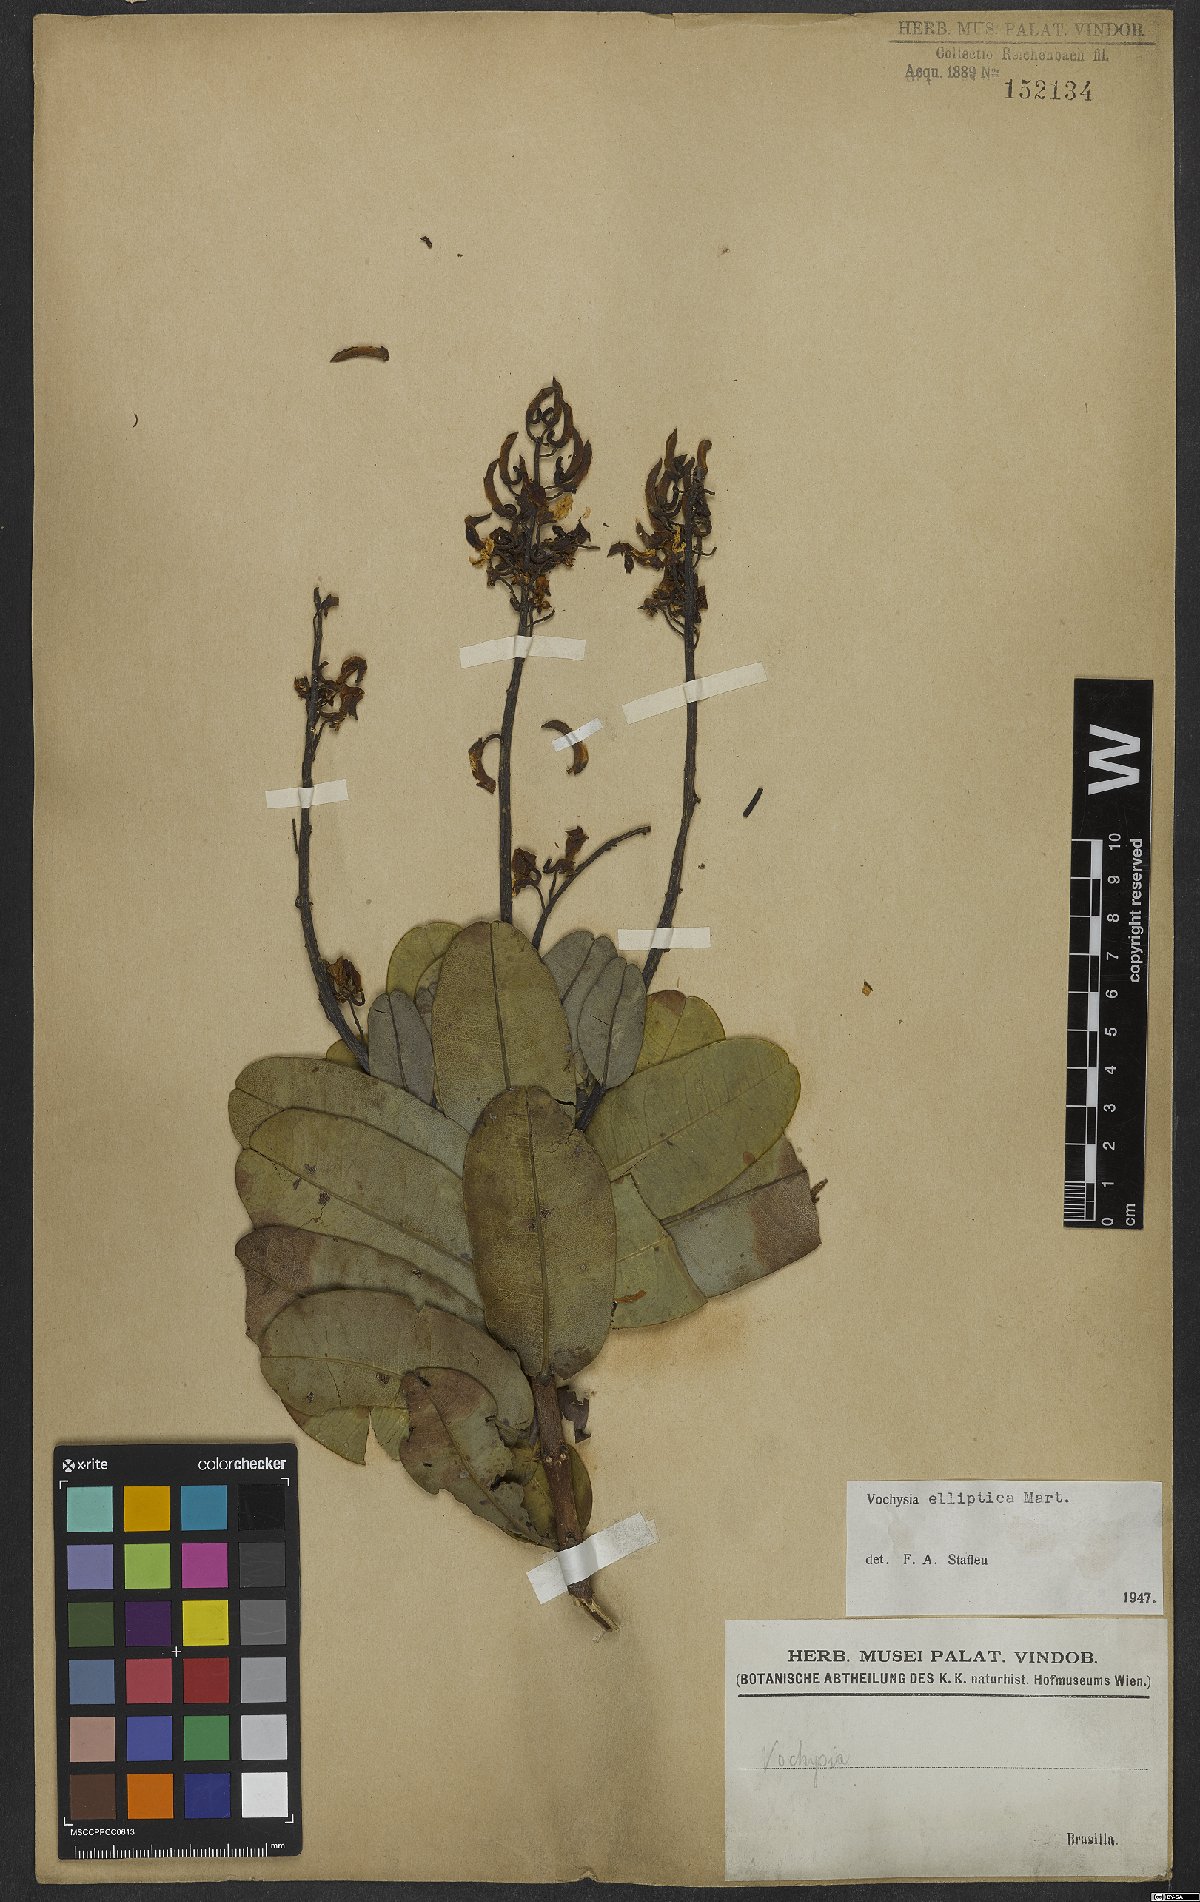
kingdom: Plantae
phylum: Tracheophyta
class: Magnoliopsida
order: Myrtales
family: Vochysiaceae
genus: Vochysia
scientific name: Vochysia elliptica
